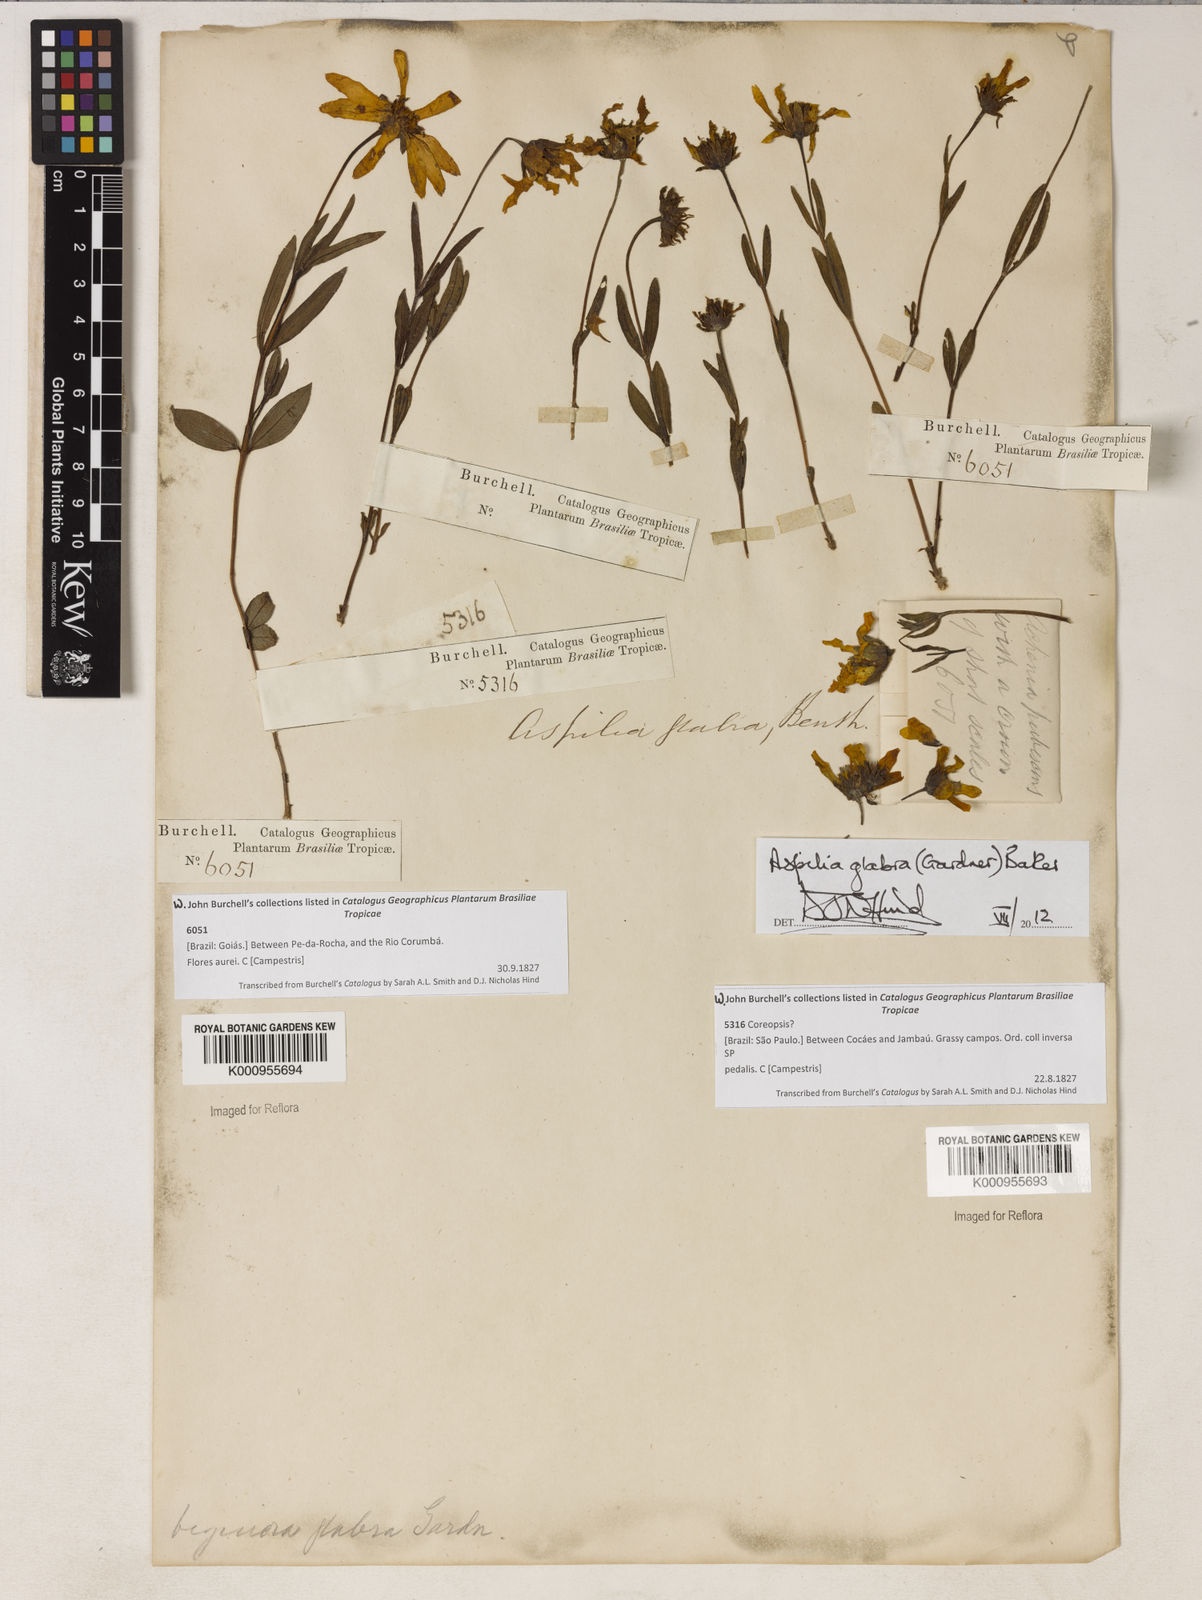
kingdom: Plantae
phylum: Tracheophyta
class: Magnoliopsida
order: Asterales
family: Asteraceae
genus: Wedelia
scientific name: Wedelia foliacea
